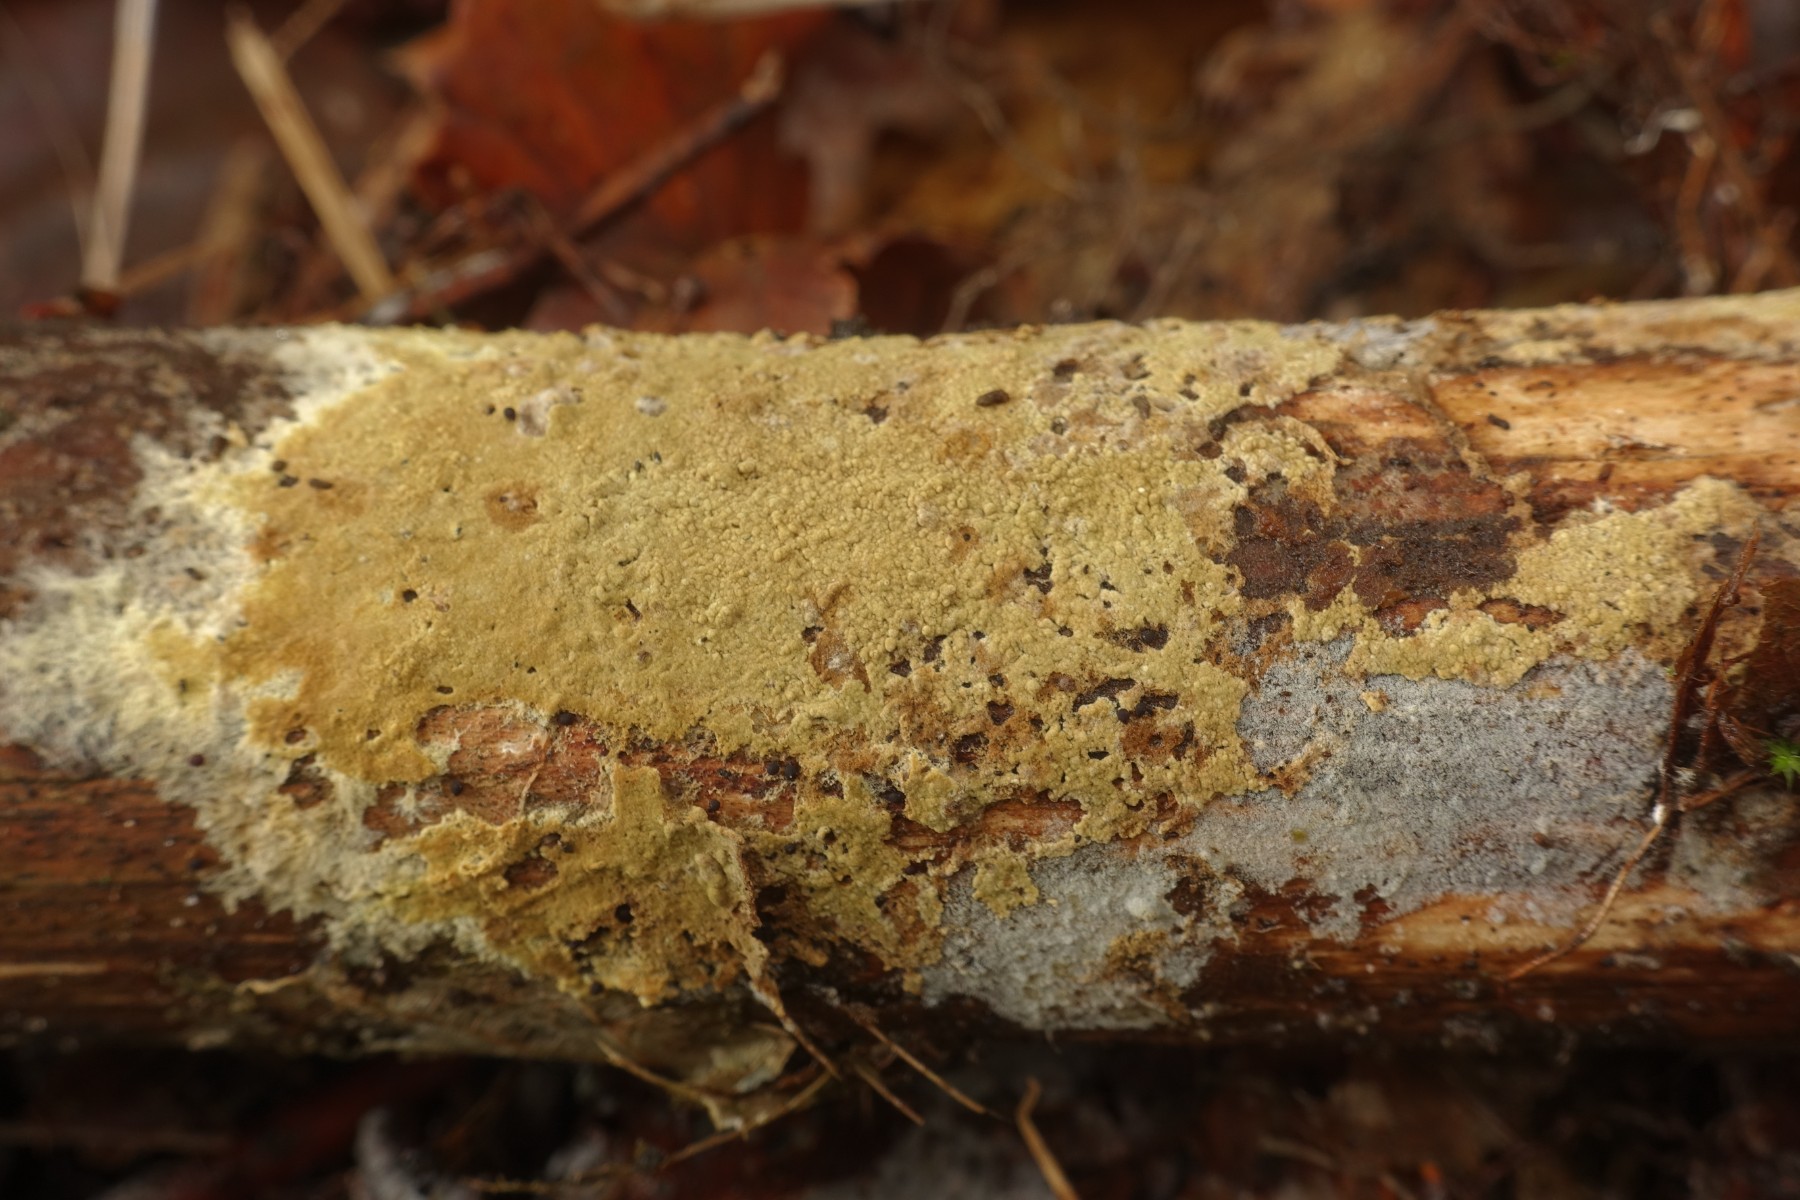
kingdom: Fungi
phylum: Basidiomycota
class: Agaricomycetes
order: Boletales
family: Coniophoraceae
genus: Coniophora
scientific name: Coniophora puteana
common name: gul tømmersvamp
